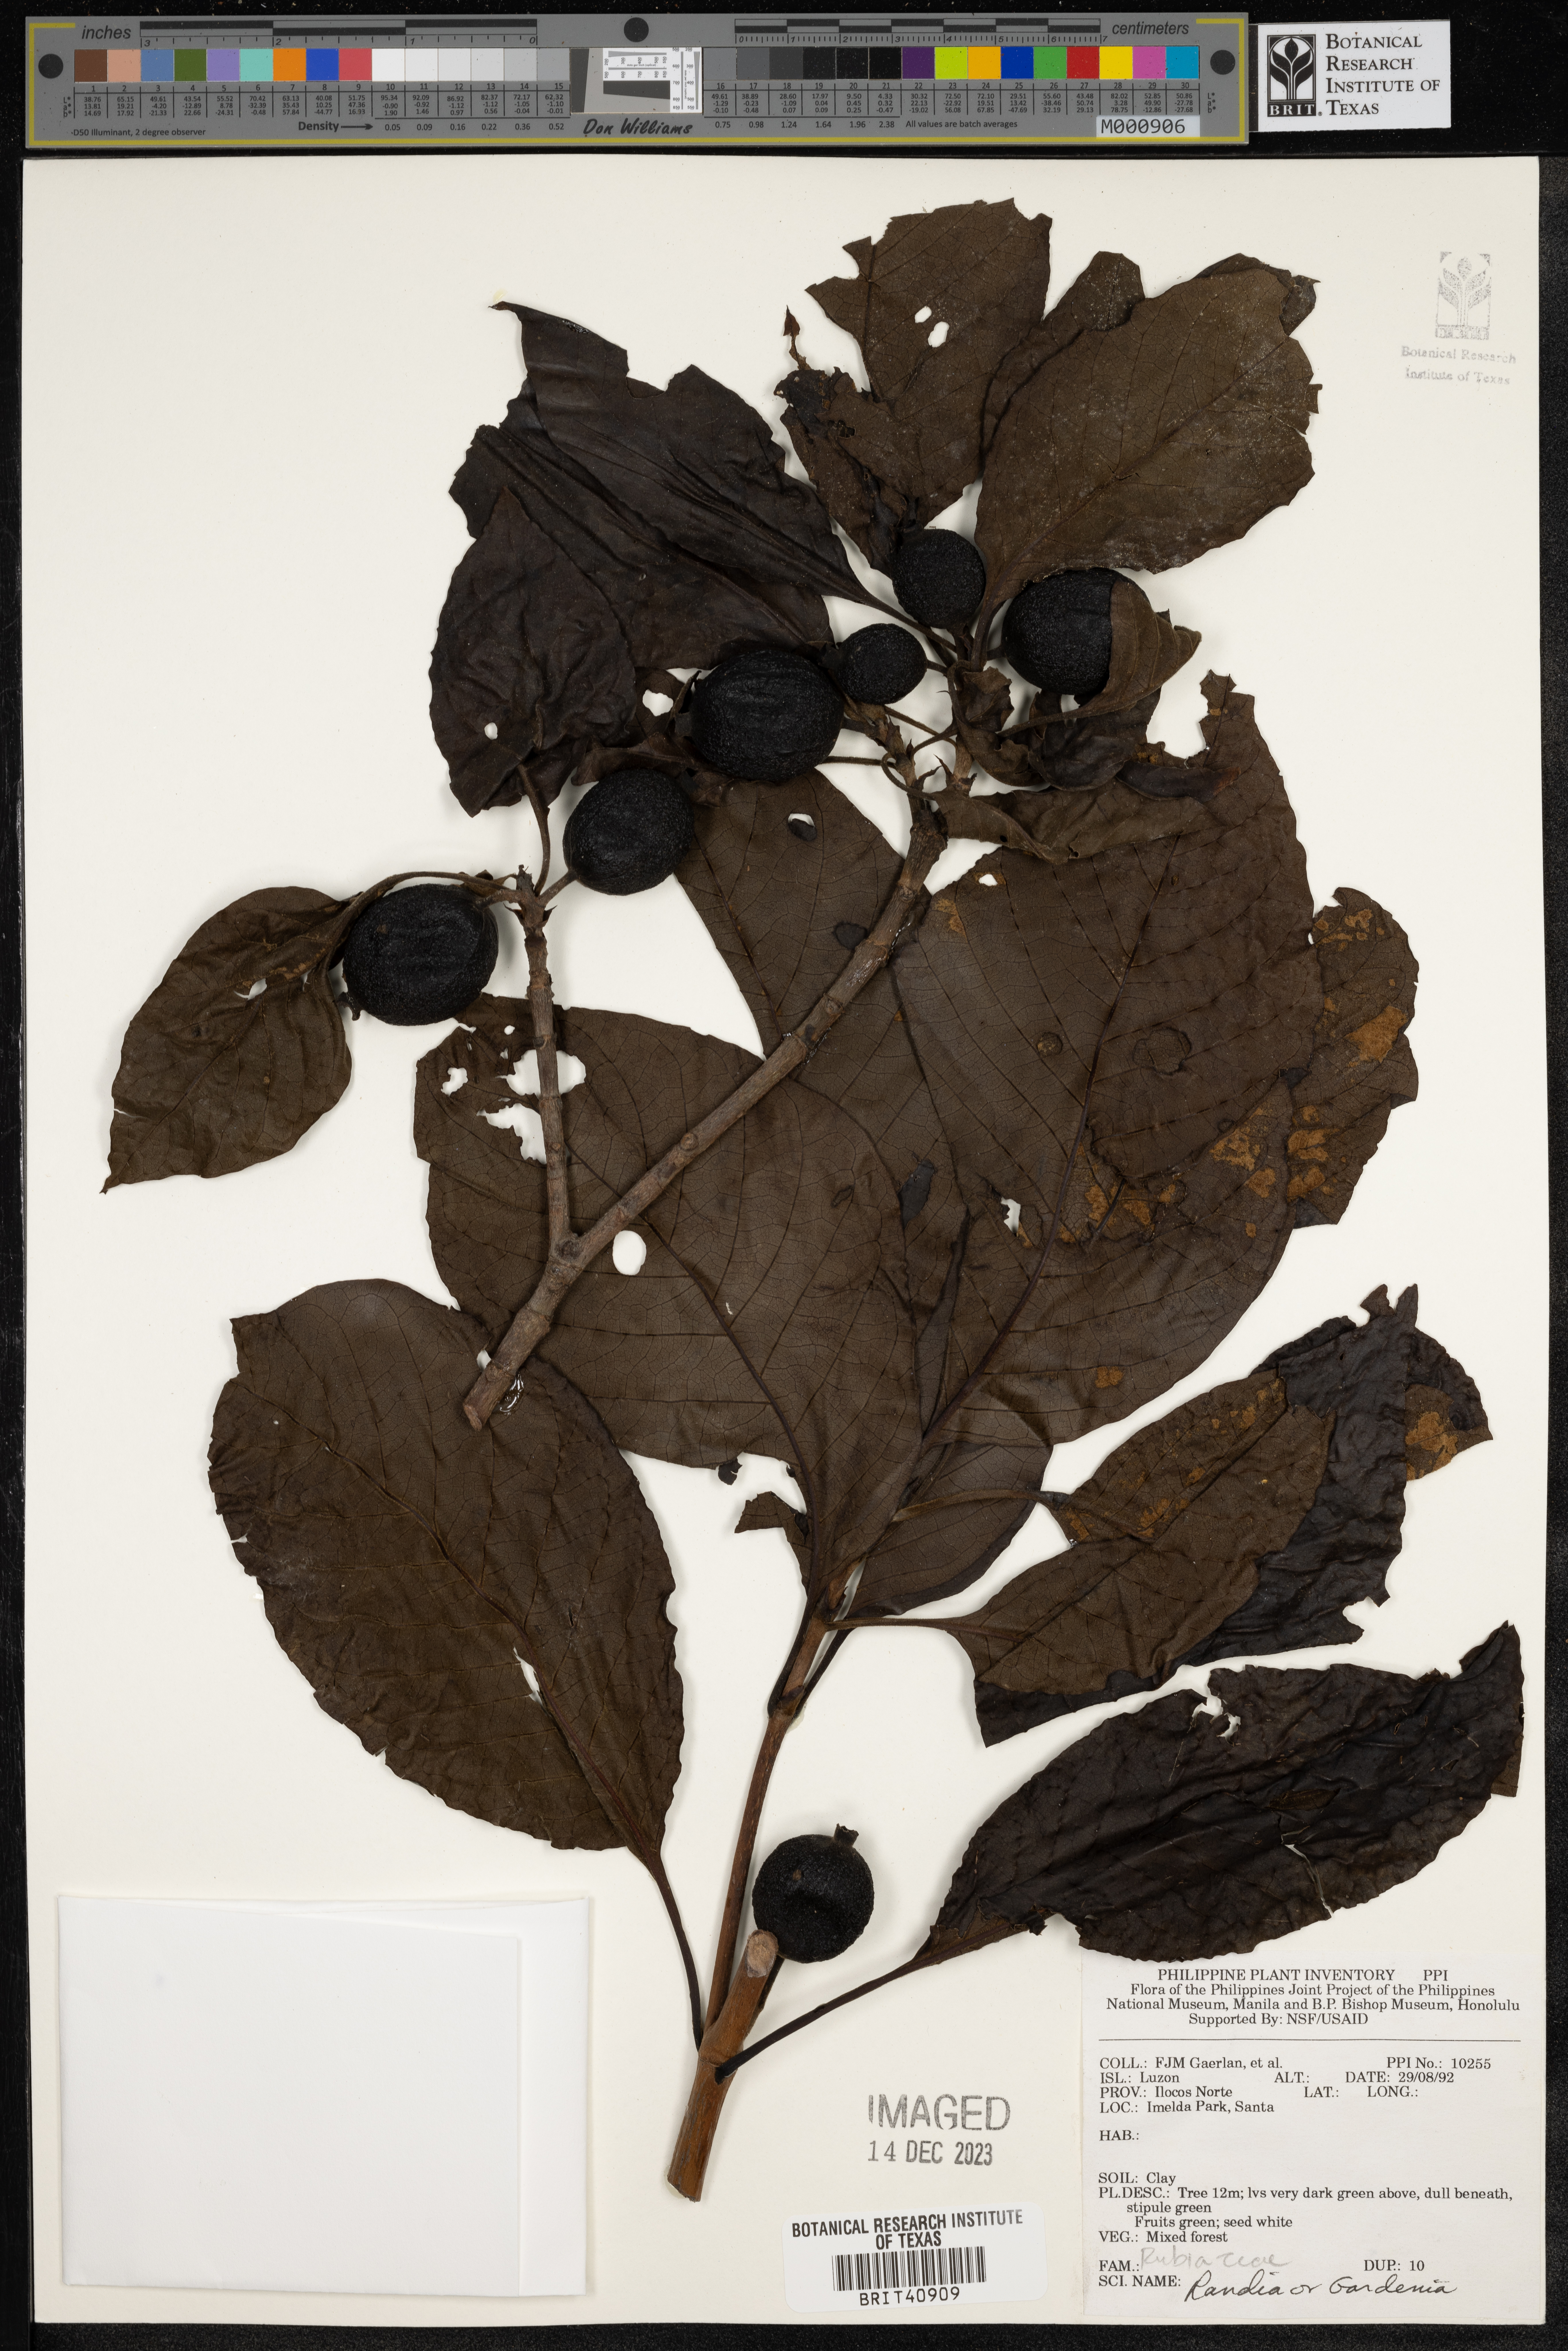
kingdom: Plantae
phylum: Tracheophyta
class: Magnoliopsida
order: Gentianales
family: Rubiaceae
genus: Randia
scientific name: Randia
